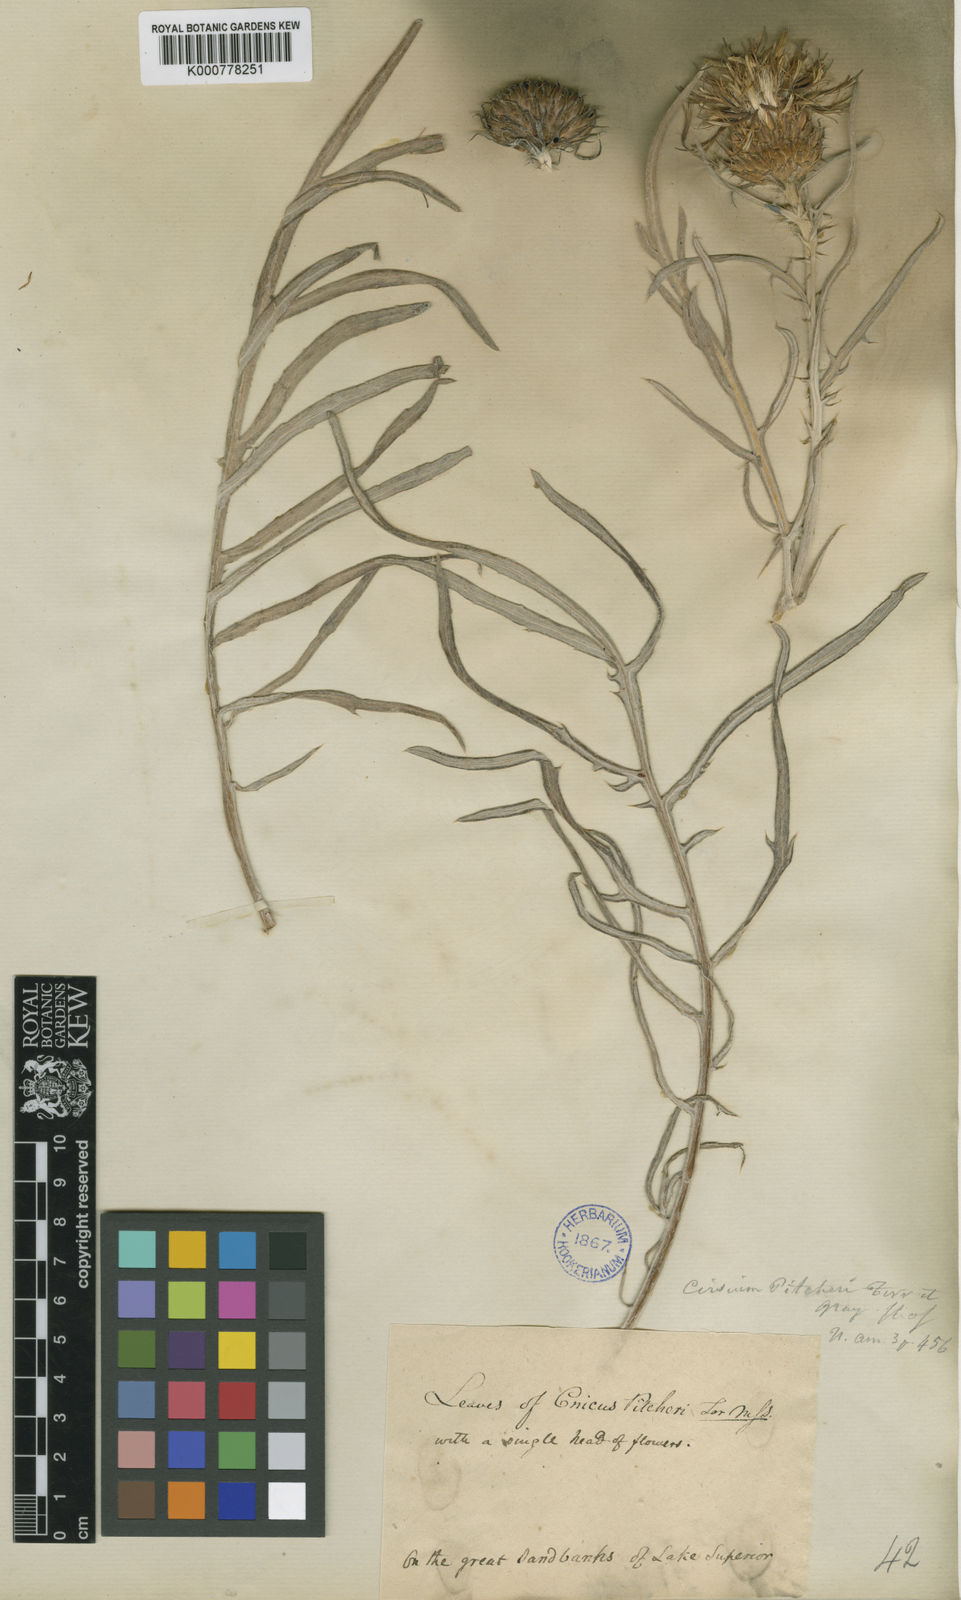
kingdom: Plantae
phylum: Tracheophyta
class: Magnoliopsida
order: Asterales
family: Asteraceae
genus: Cirsium
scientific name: Cirsium pitcheri
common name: Dune thistle
